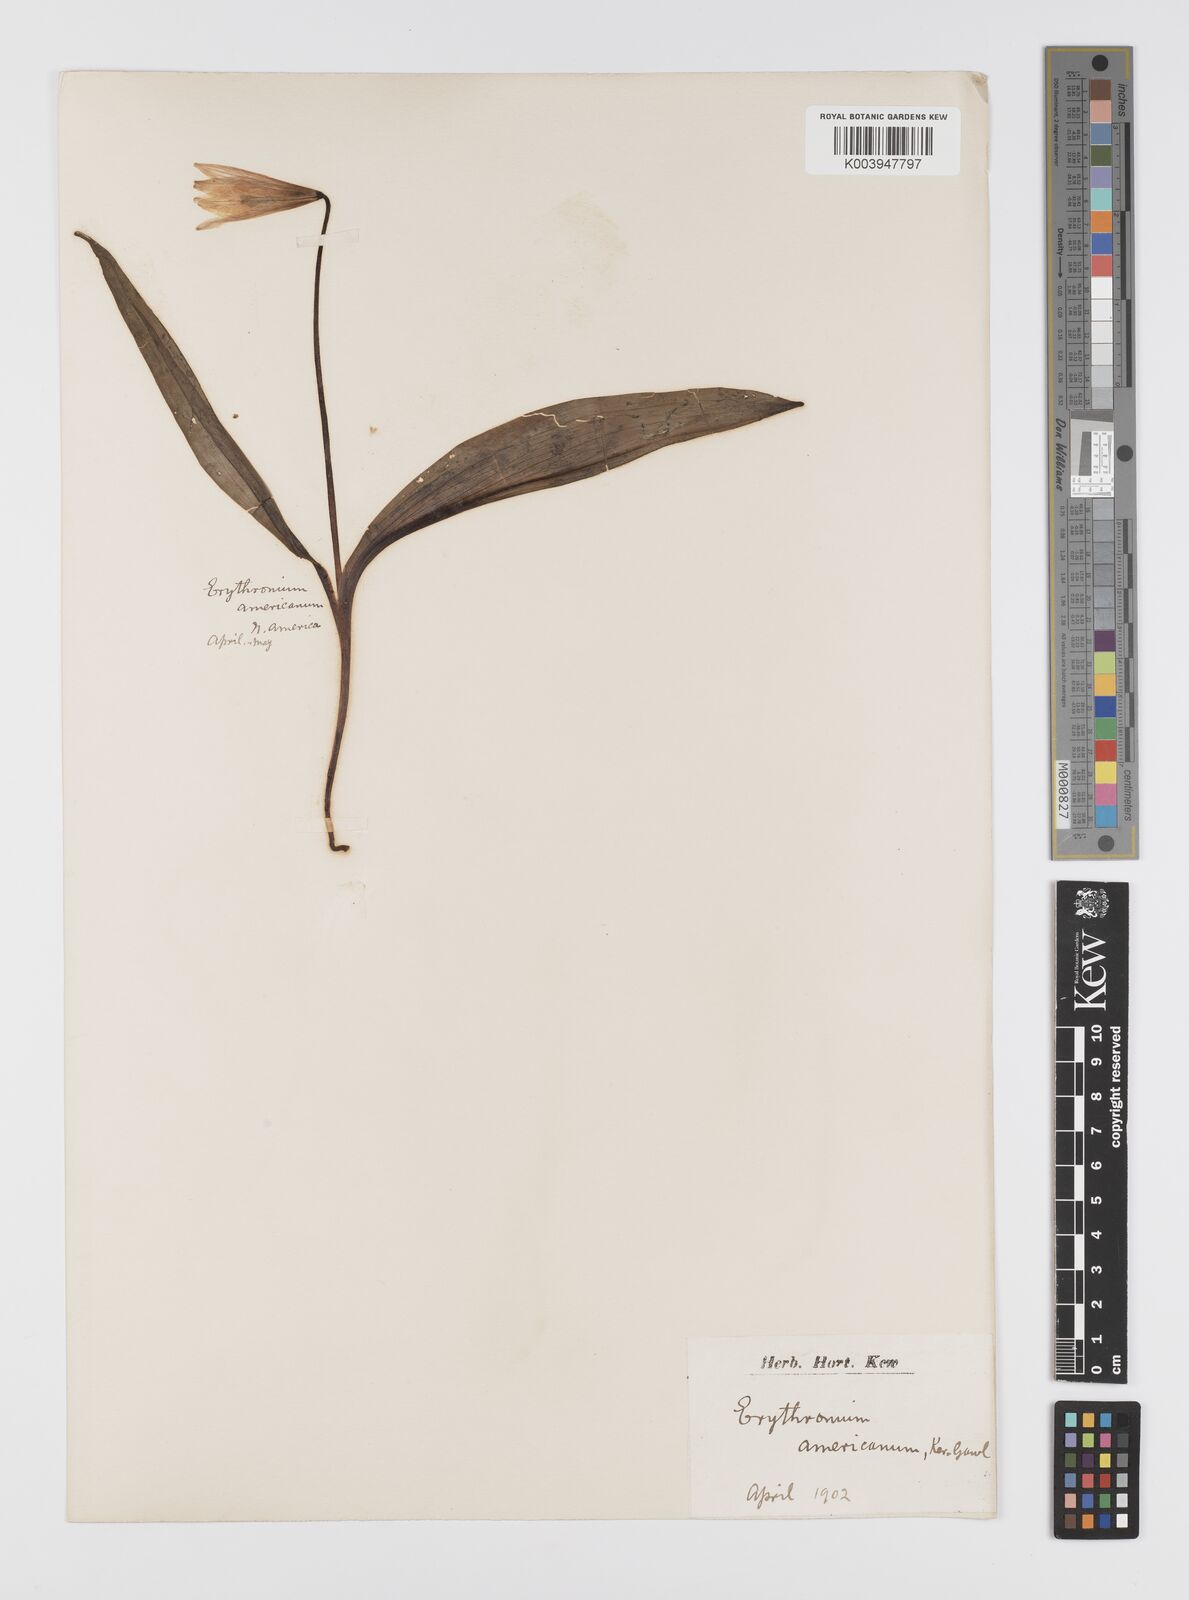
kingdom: Plantae
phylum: Tracheophyta
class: Liliopsida
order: Liliales
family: Liliaceae
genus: Erythronium
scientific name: Erythronium americanum
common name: Yellow adder's-tongue
